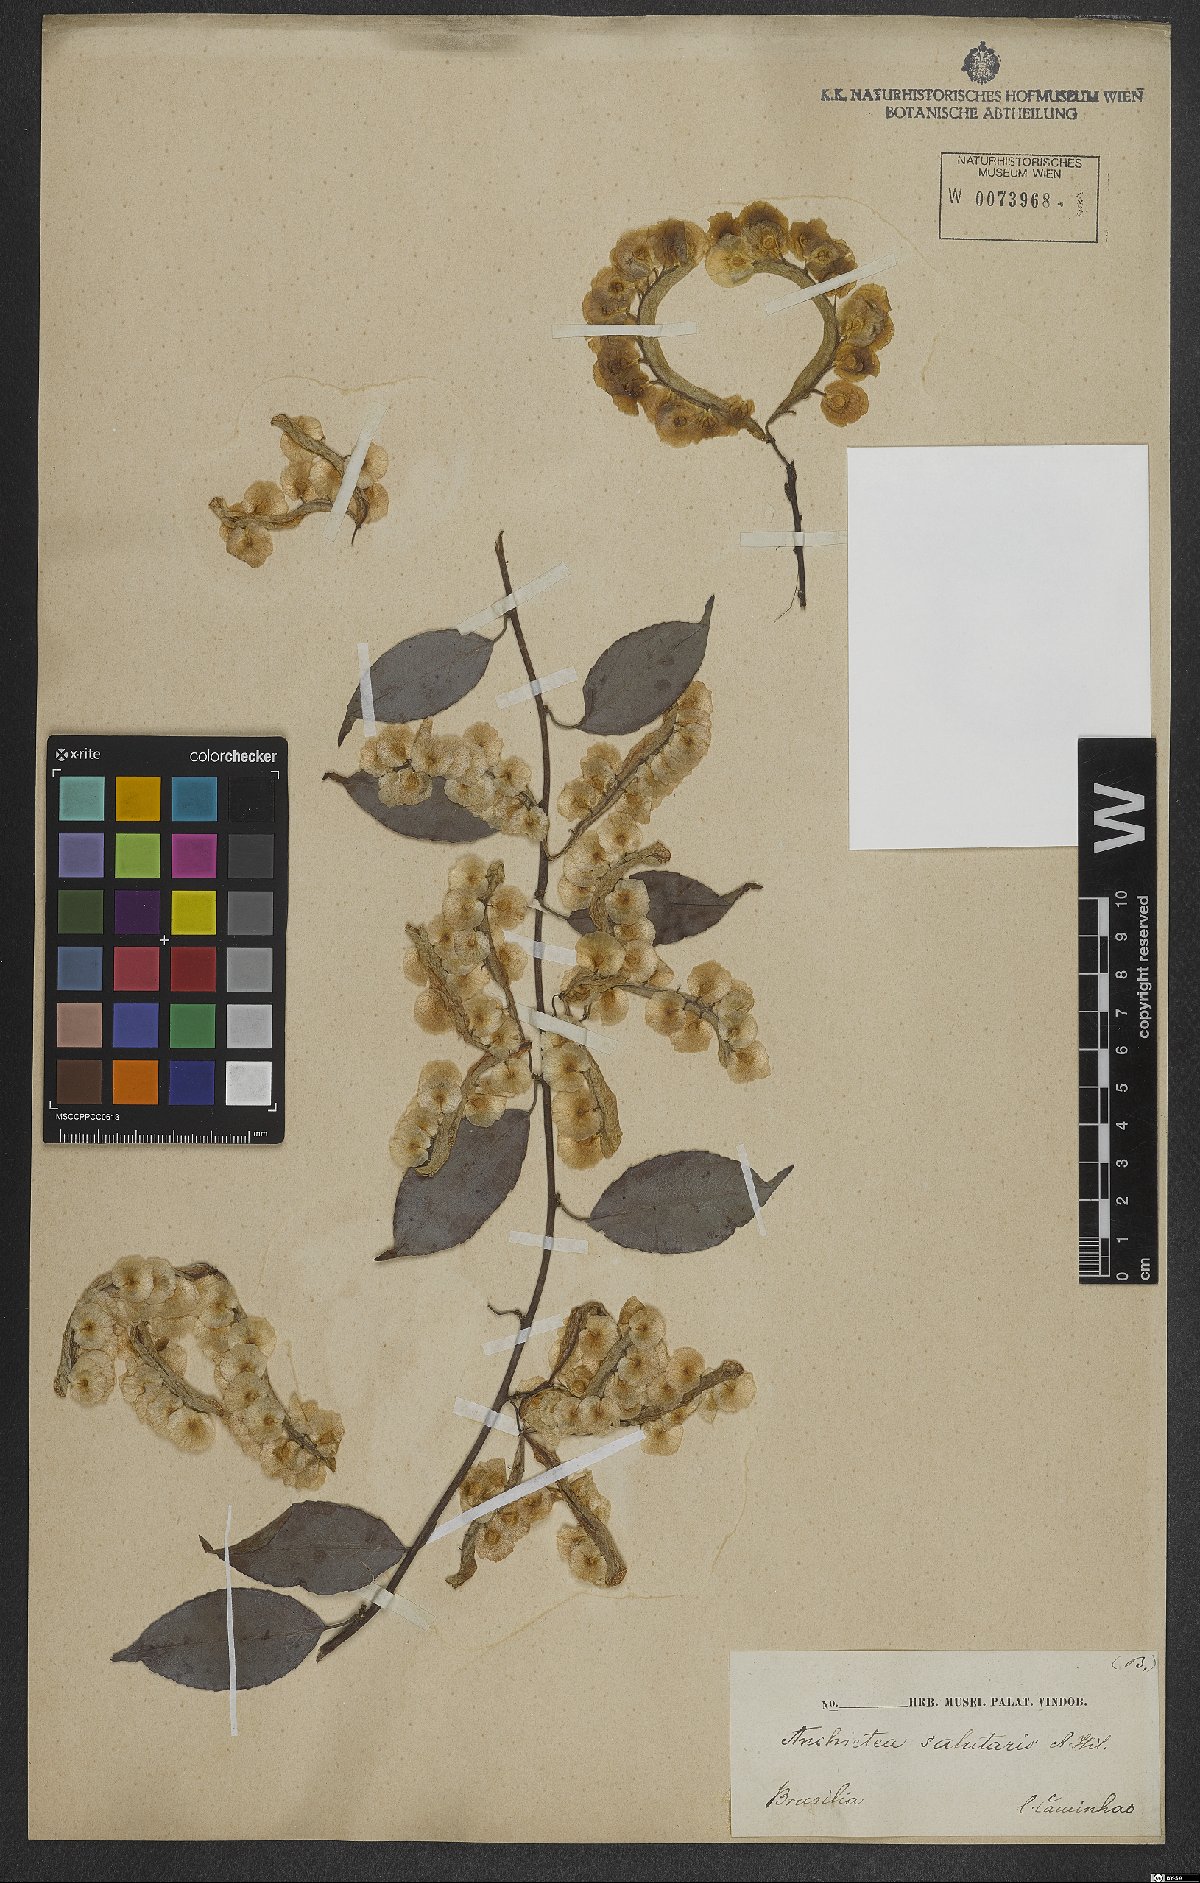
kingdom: Plantae
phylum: Tracheophyta
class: Magnoliopsida
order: Malpighiales
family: Violaceae
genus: Anchietea
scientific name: Anchietea pyrifolia
